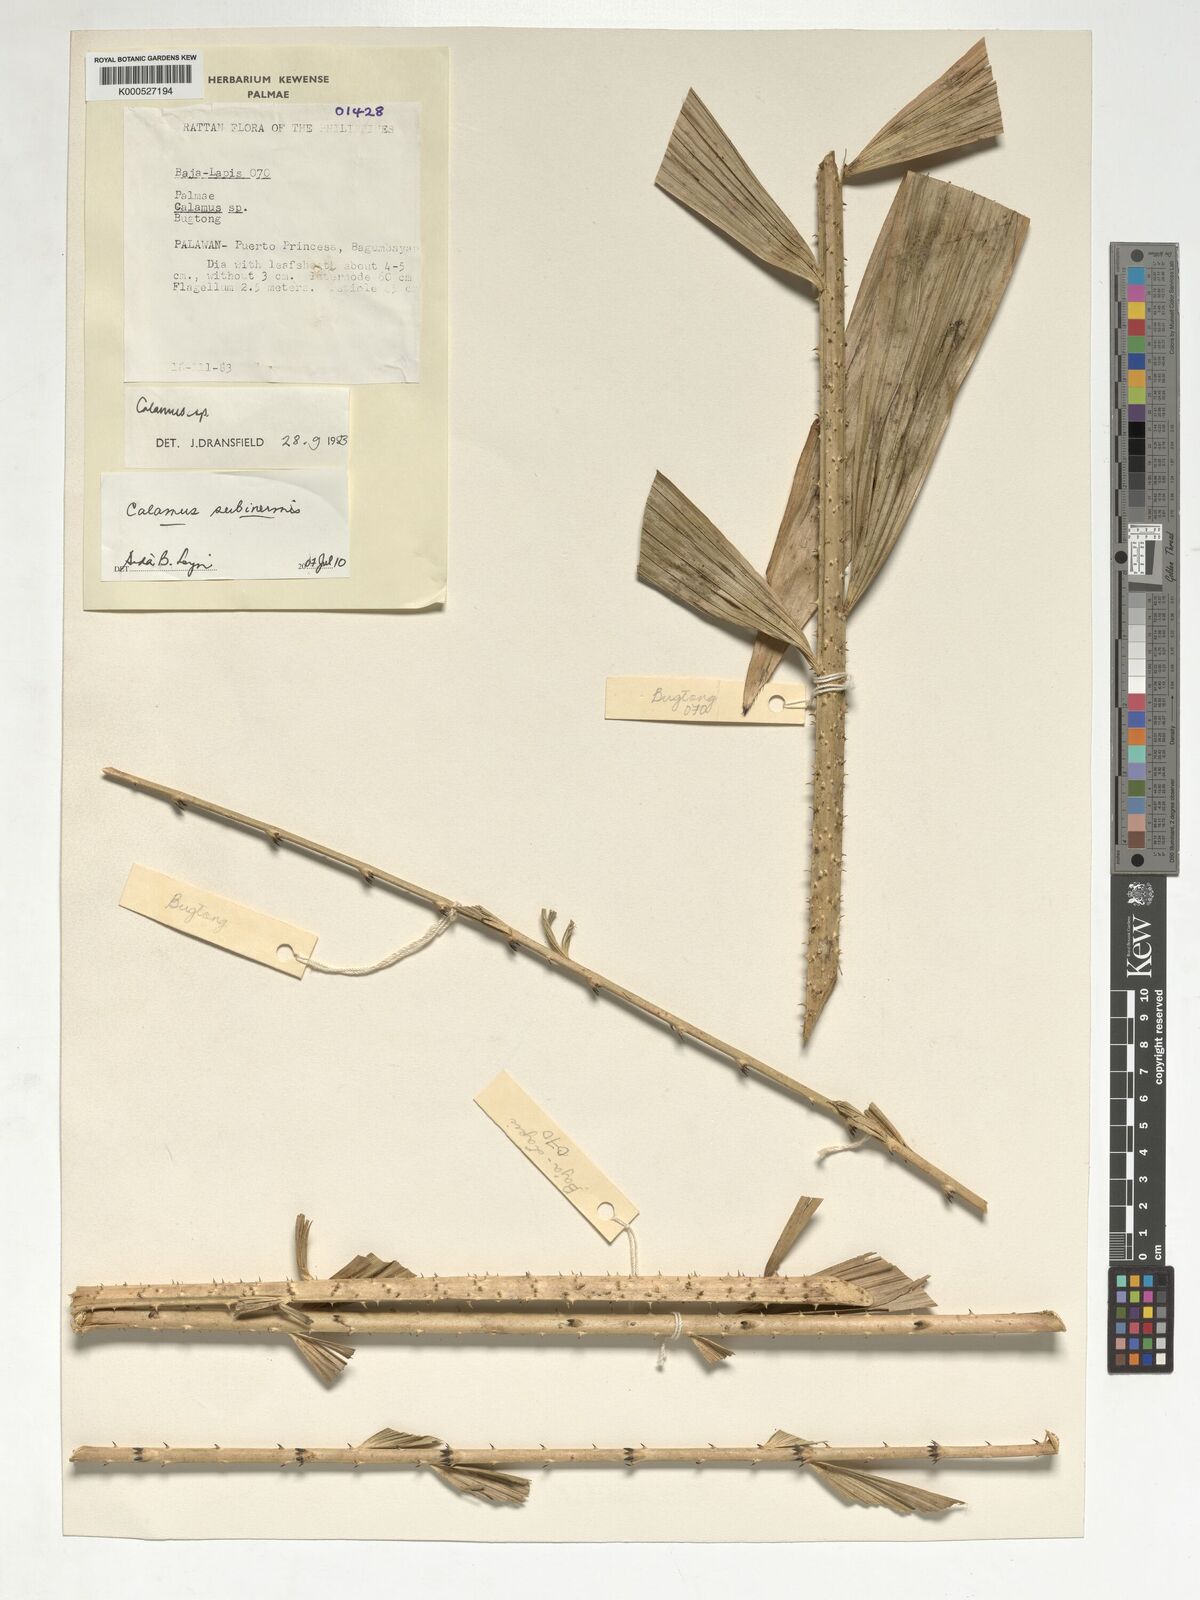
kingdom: Plantae
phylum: Tracheophyta
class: Liliopsida
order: Arecales
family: Arecaceae
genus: Calamus
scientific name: Calamus moseleyanus
